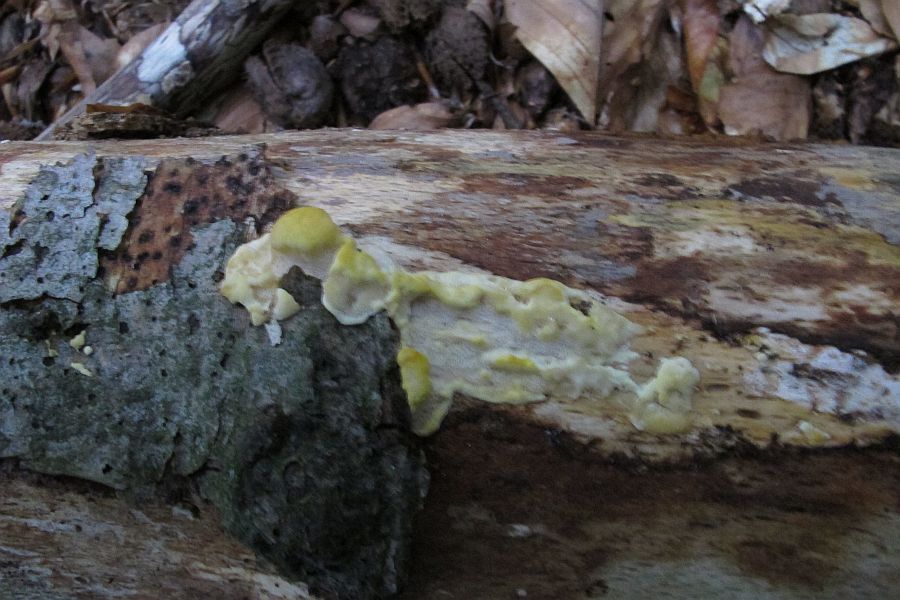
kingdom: Fungi
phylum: Basidiomycota
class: Agaricomycetes
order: Polyporales
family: Steccherinaceae
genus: Antrodiella
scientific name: Antrodiella serpula
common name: gulrandet elastikporesvamp
